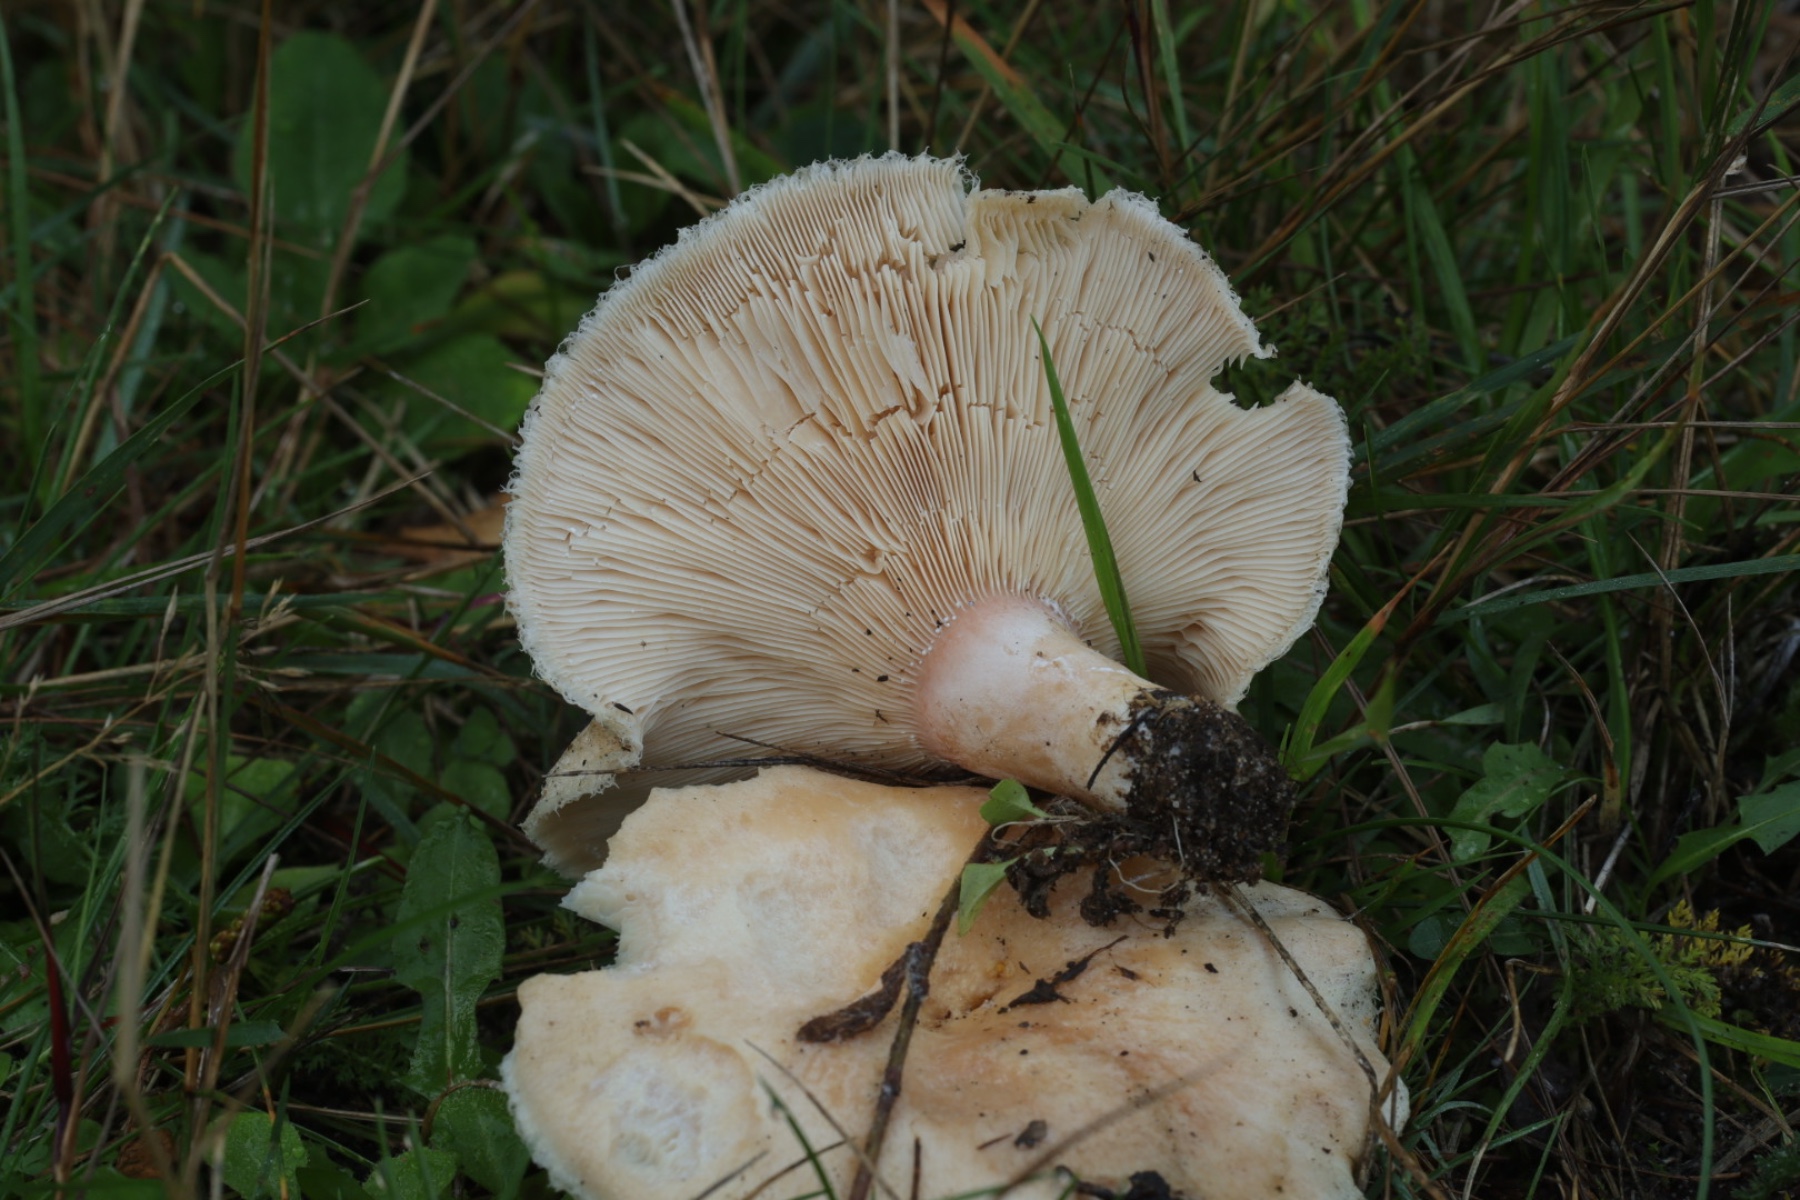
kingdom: Fungi
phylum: Basidiomycota
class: Agaricomycetes
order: Russulales
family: Russulaceae
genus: Lactarius
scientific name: Lactarius pubescens
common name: dunet mælkehat
